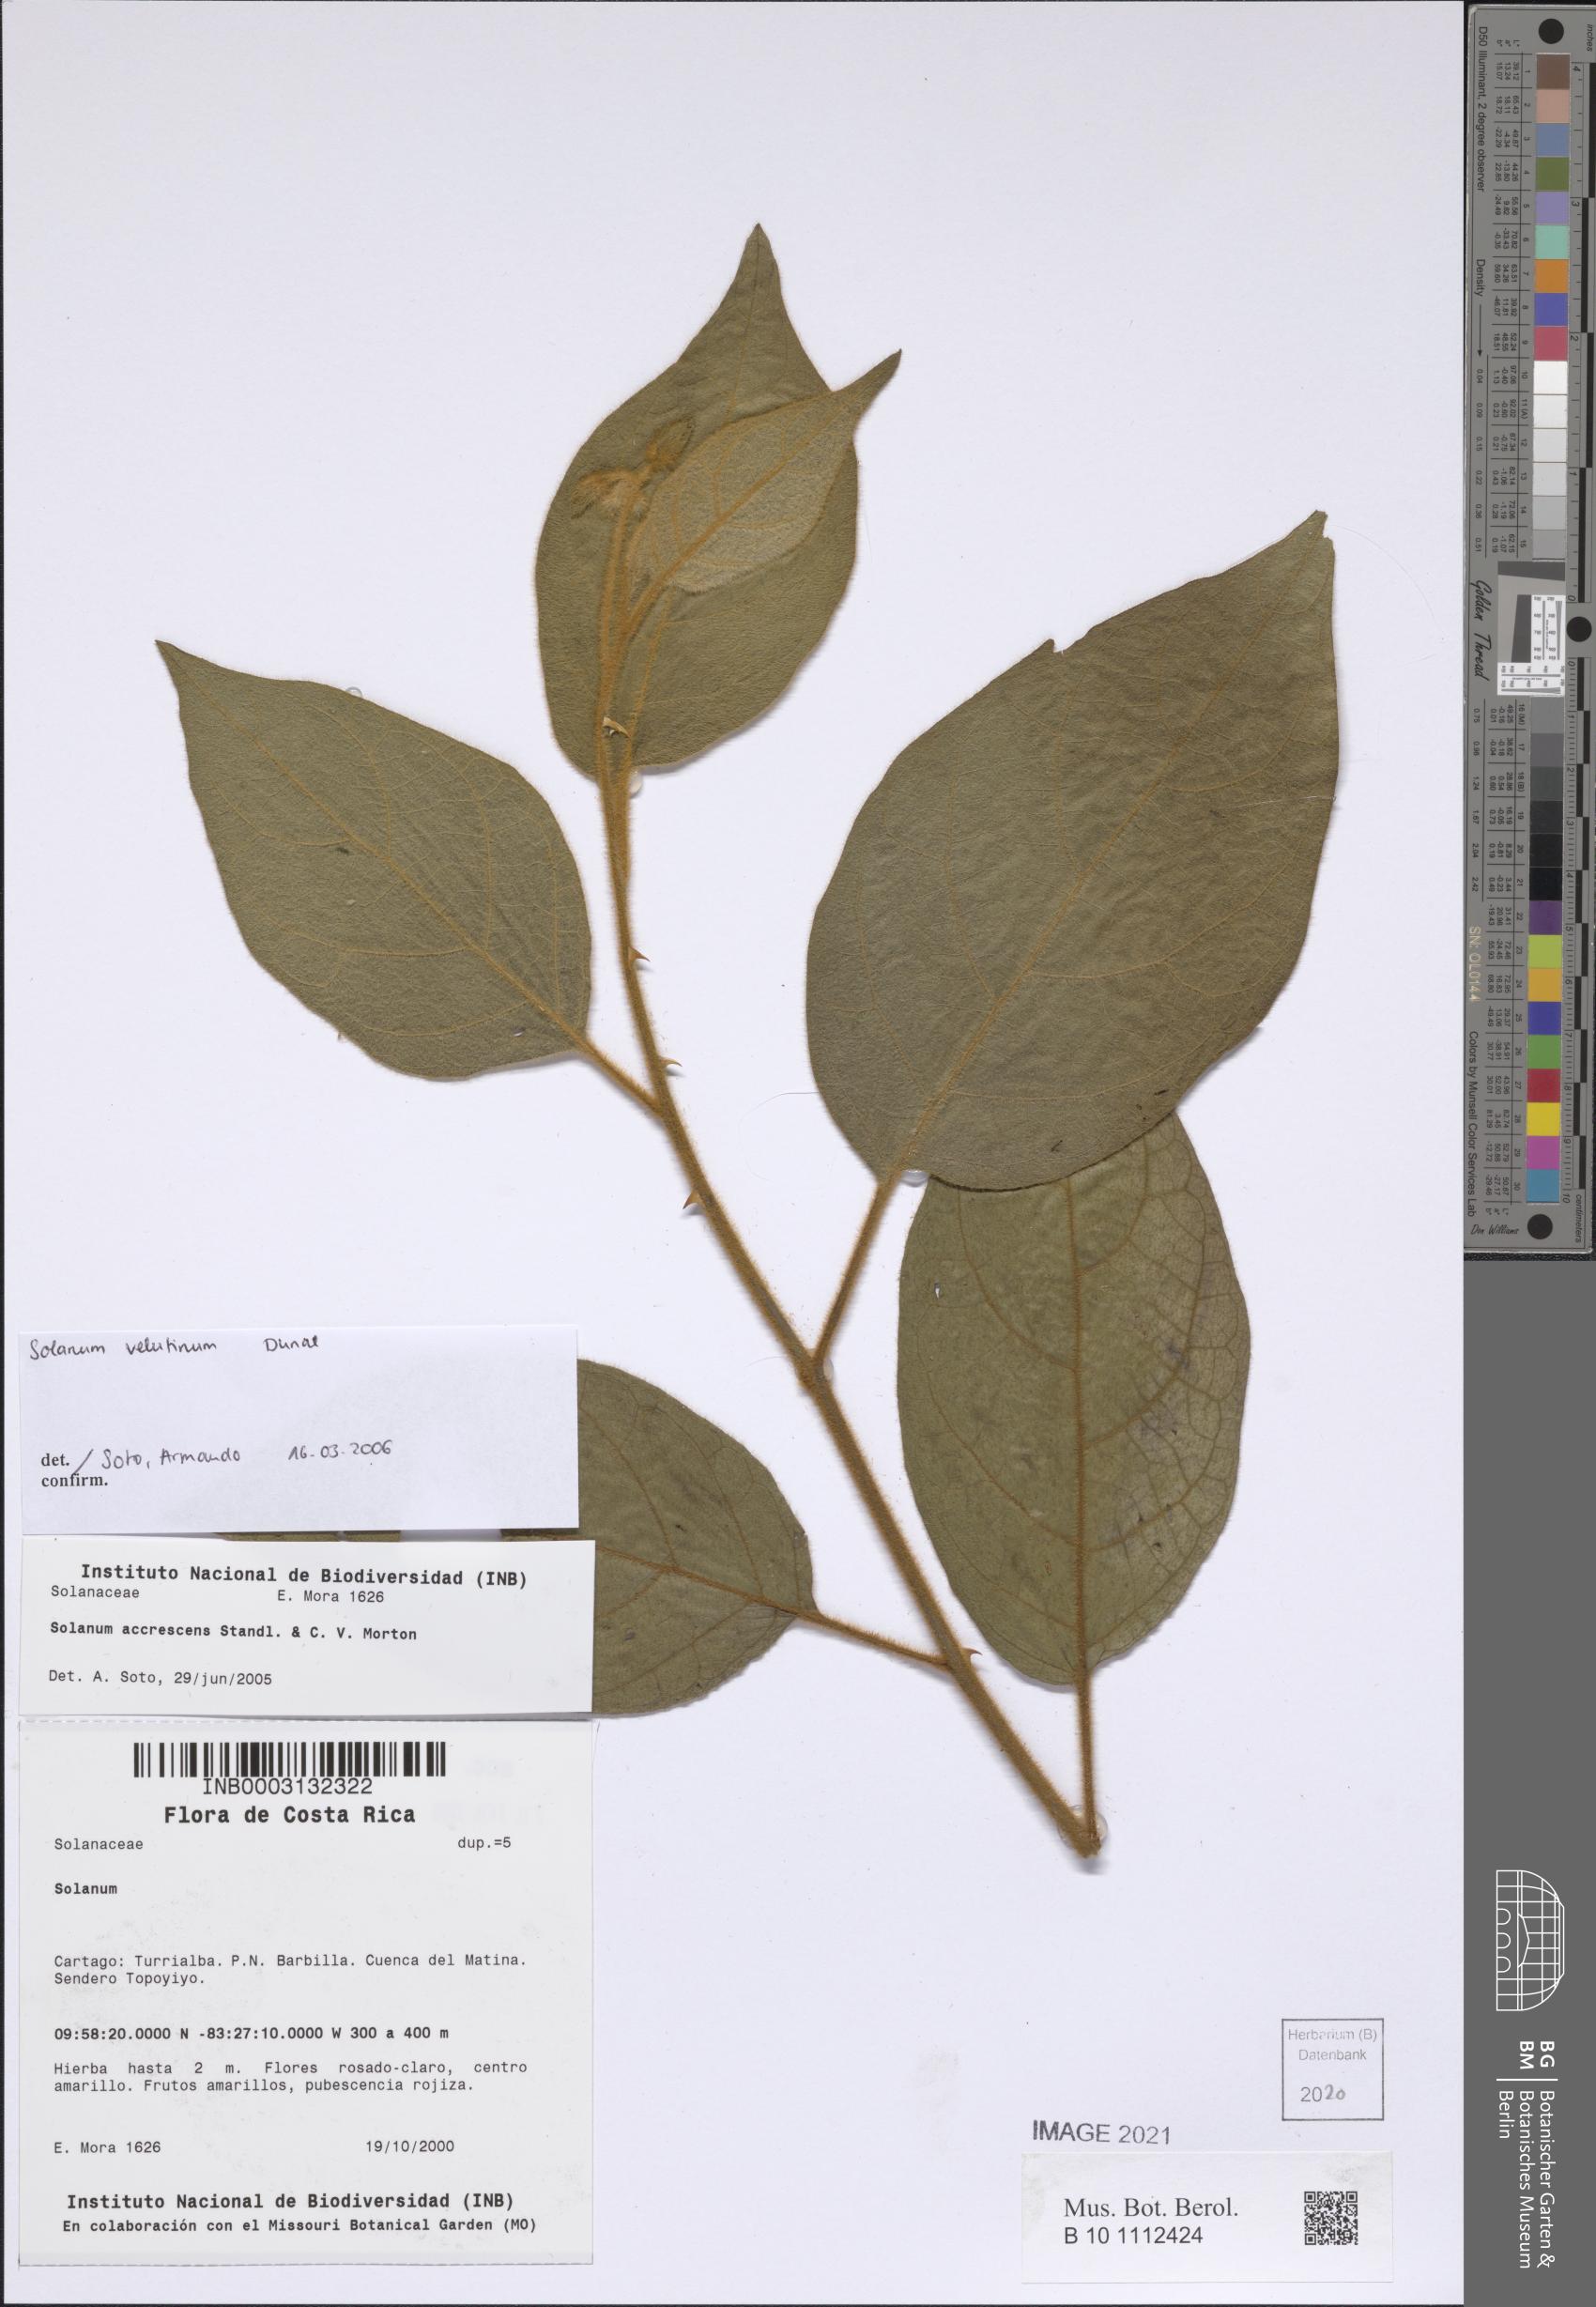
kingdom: Plantae
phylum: Tracheophyta
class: Magnoliopsida
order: Solanales
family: Solanaceae
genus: Solanum
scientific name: Solanum velutinum
